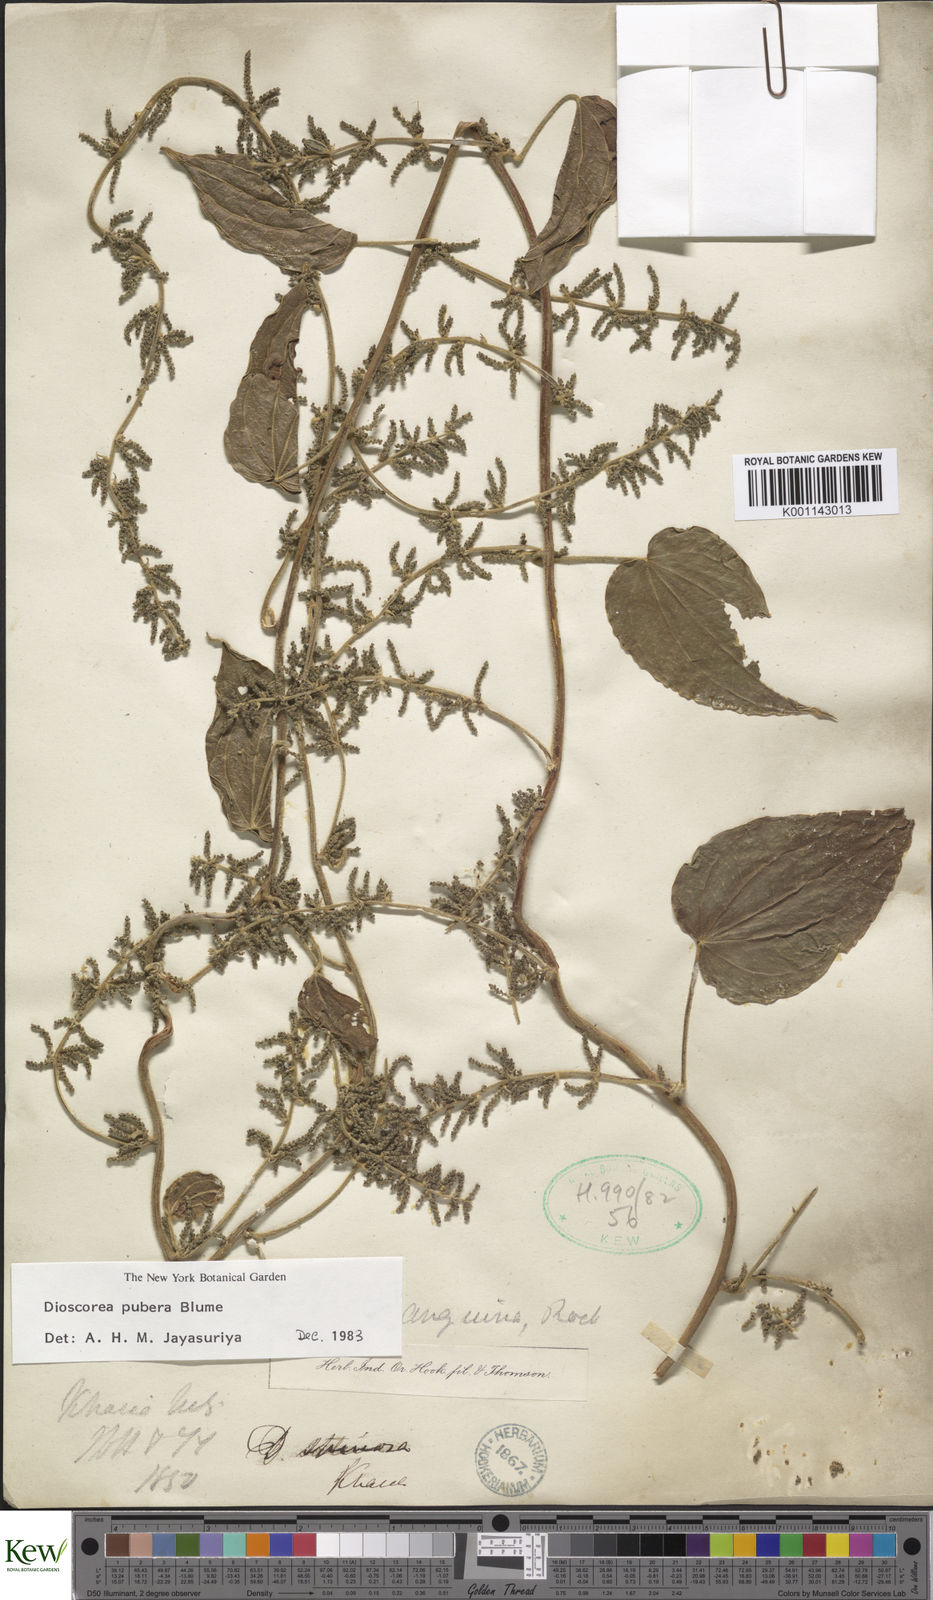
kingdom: Plantae
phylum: Tracheophyta
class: Liliopsida
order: Dioscoreales
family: Dioscoreaceae
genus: Dioscorea
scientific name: Dioscorea pubera
